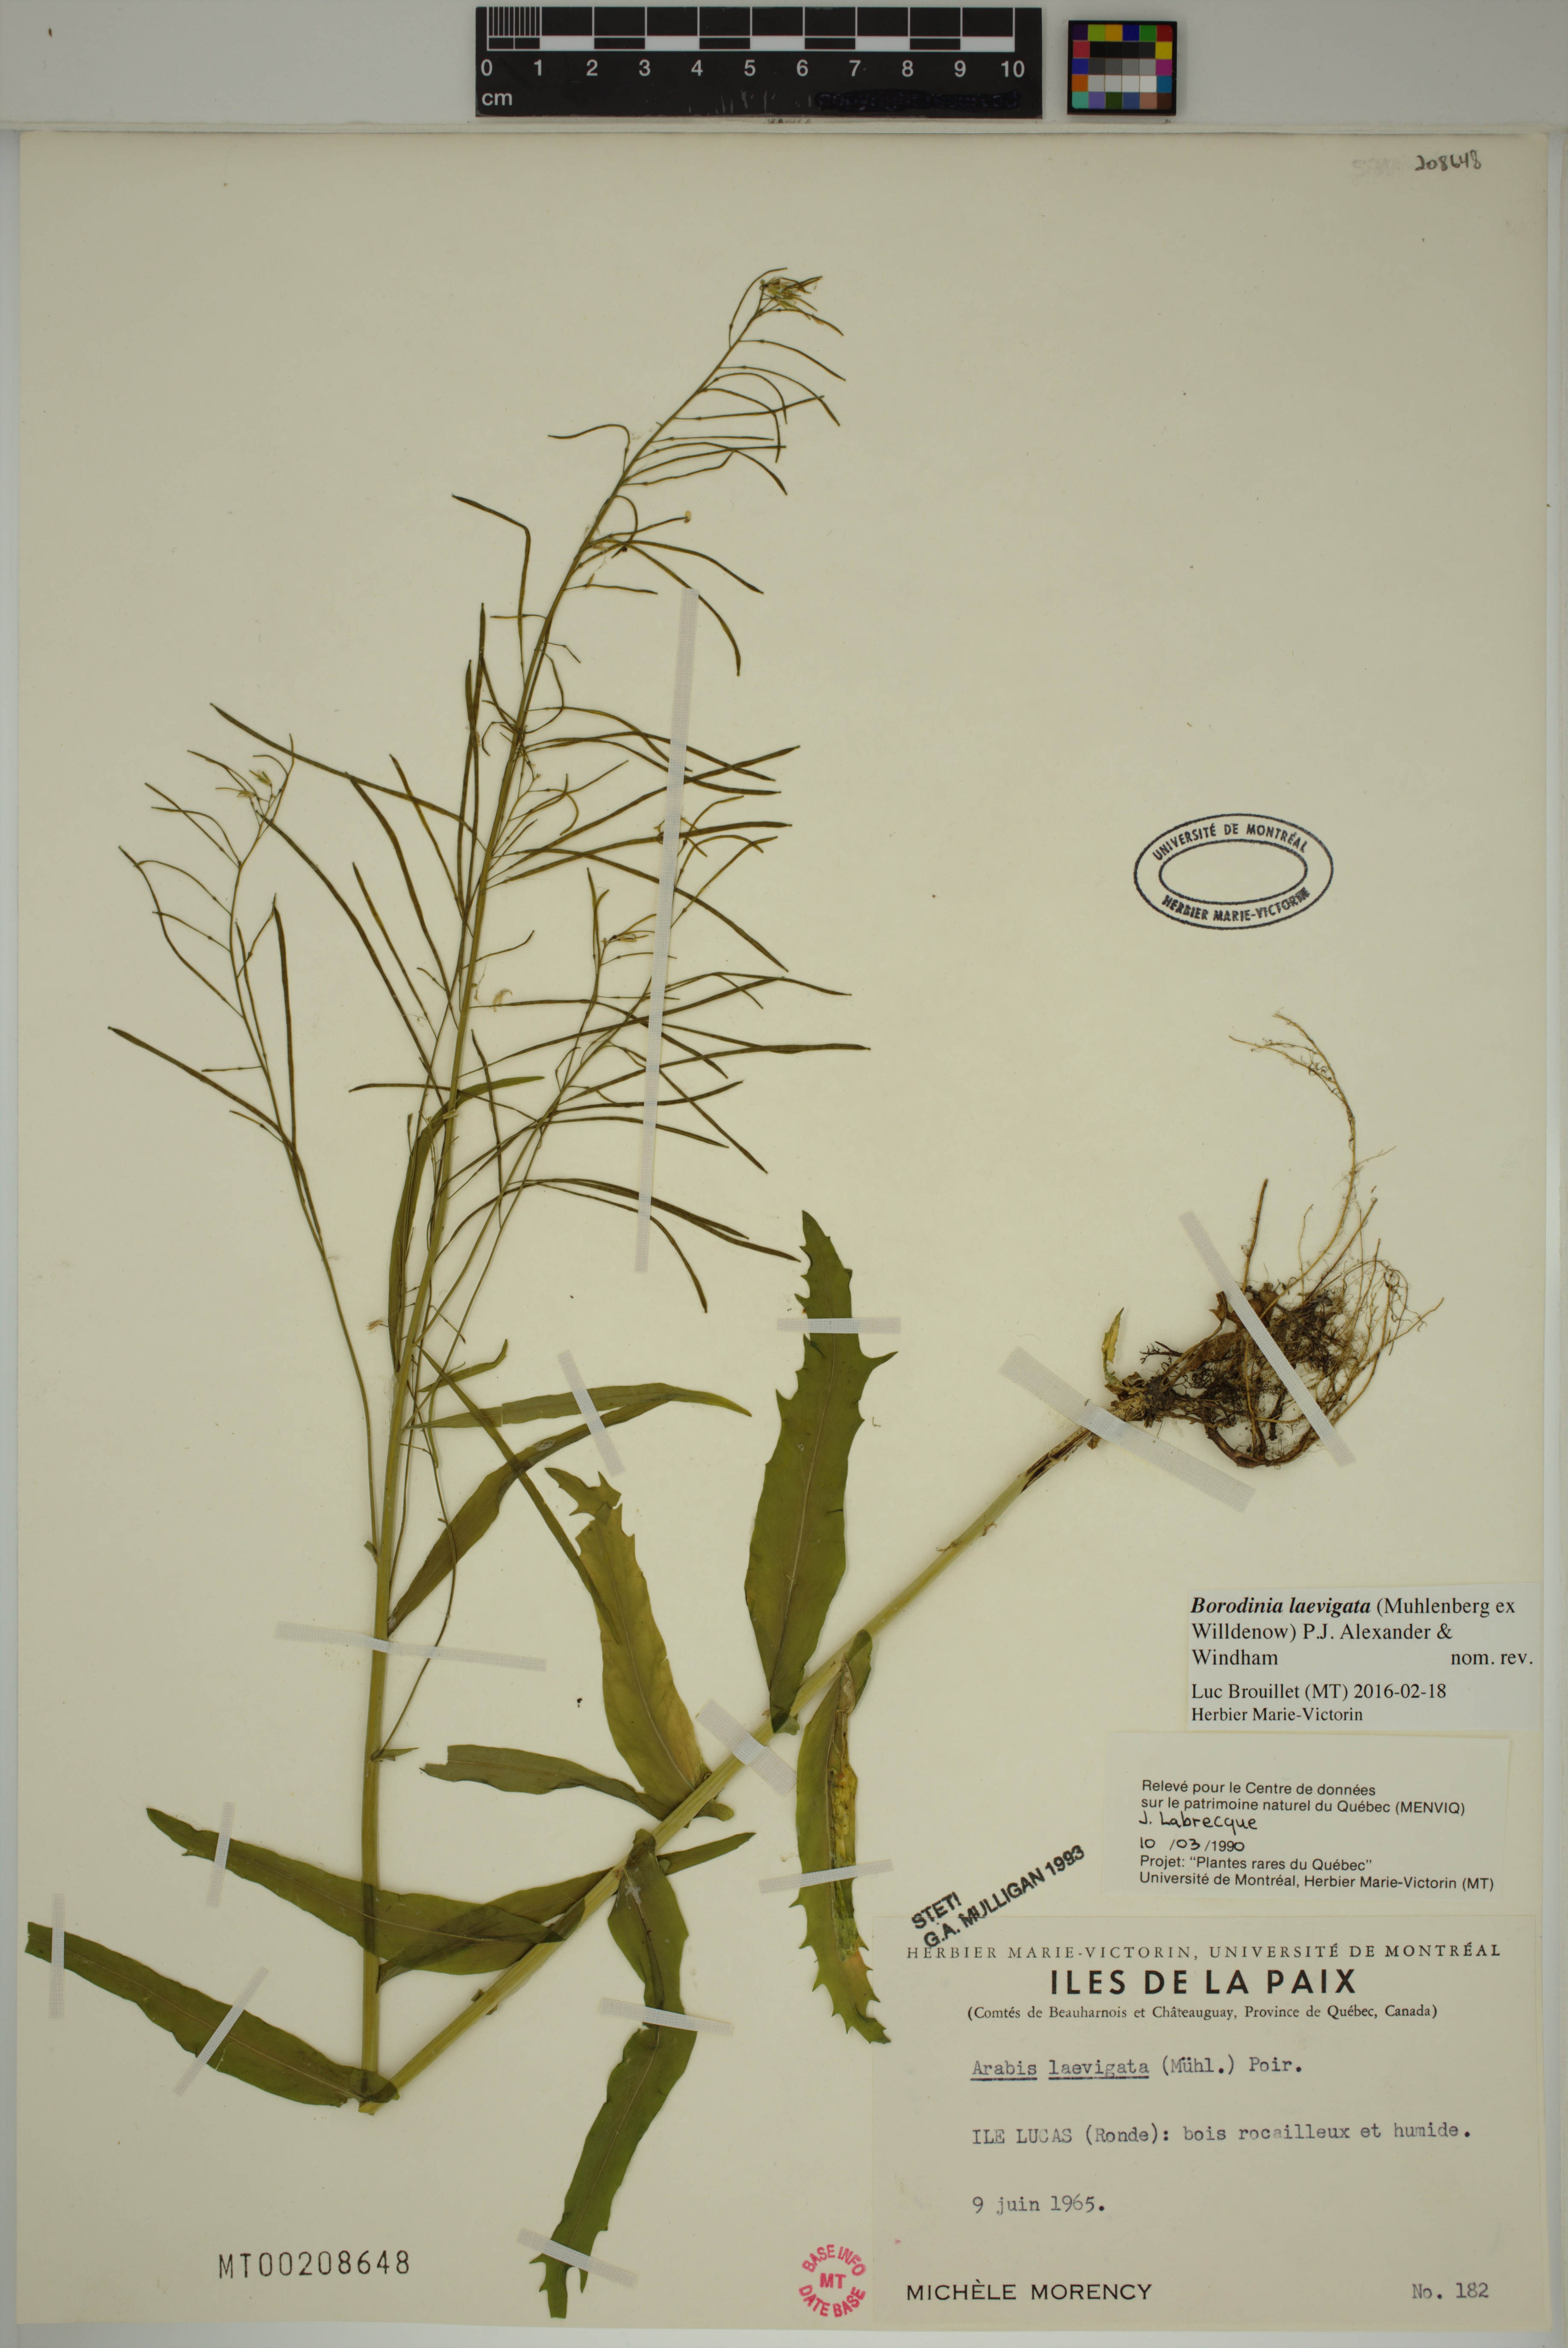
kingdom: Plantae
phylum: Tracheophyta
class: Magnoliopsida
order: Brassicales
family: Brassicaceae
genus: Borodinia
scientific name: Borodinia laevigata
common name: Smooth rockcress
